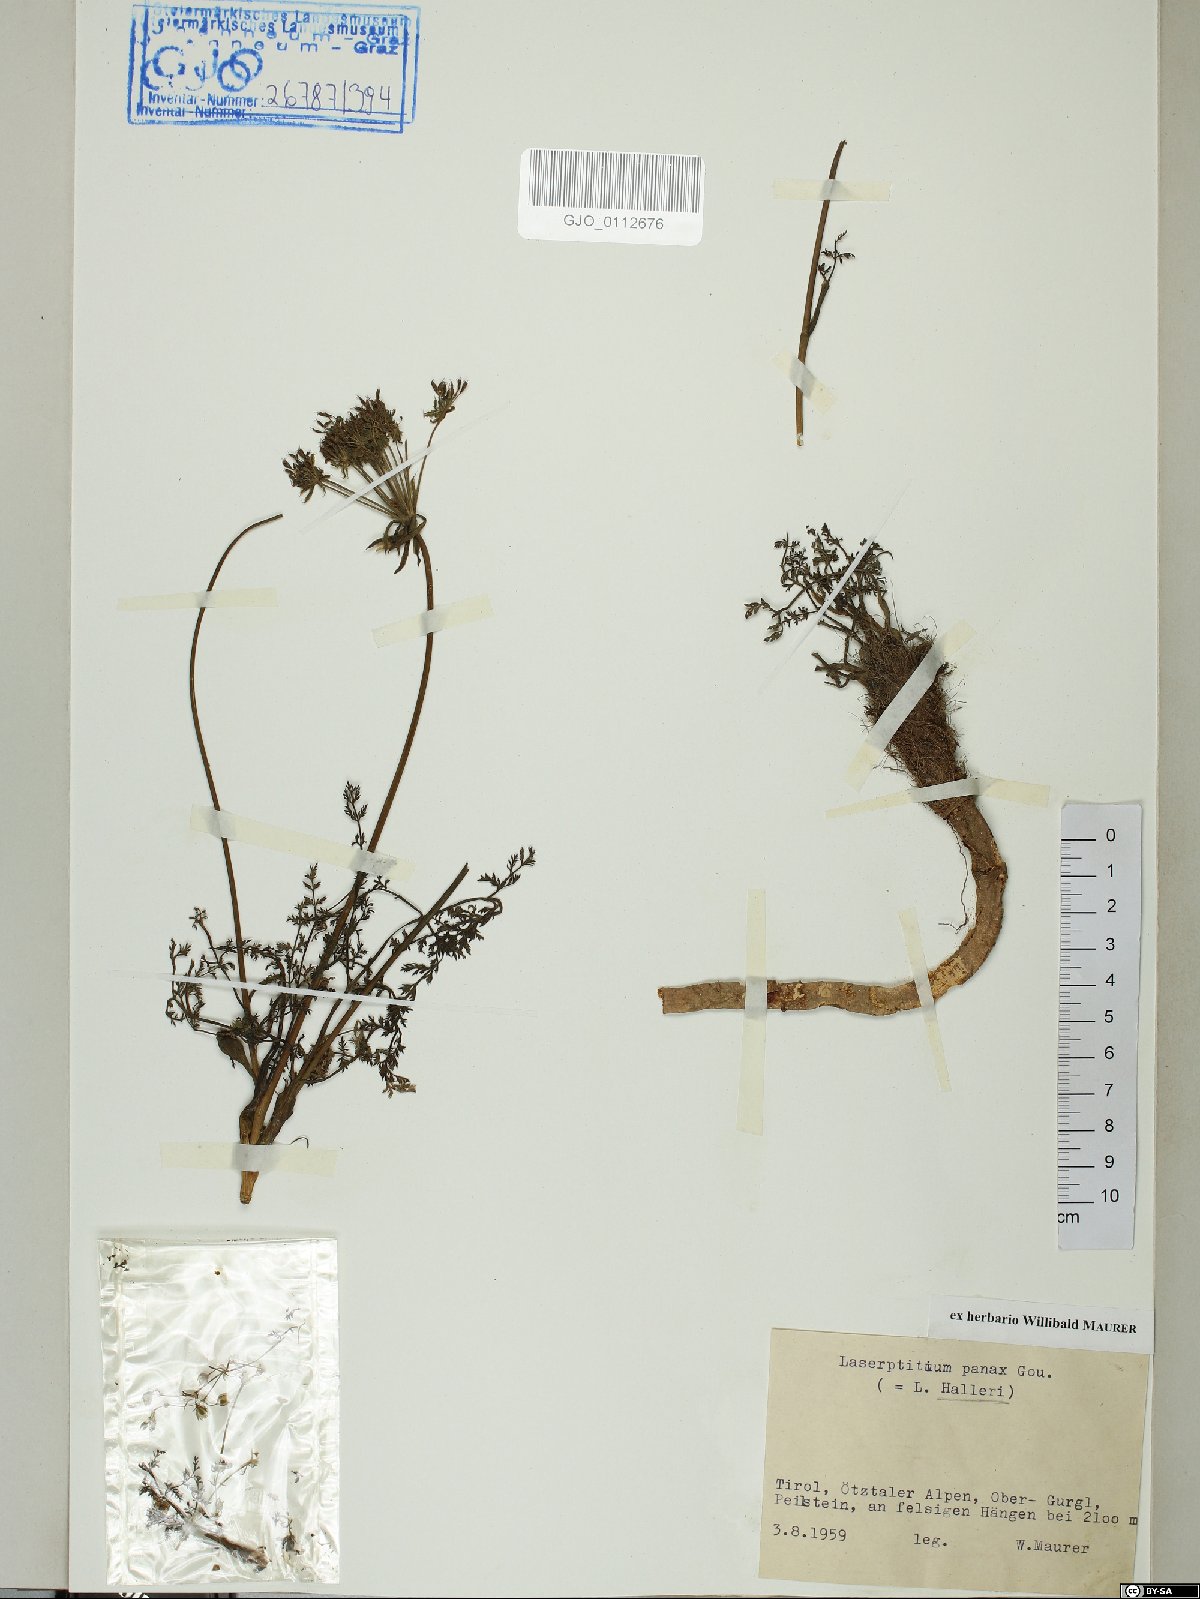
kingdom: Plantae
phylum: Tracheophyta
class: Magnoliopsida
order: Apiales
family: Apiaceae
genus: Laserpitium
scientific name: Laserpitium halleri
